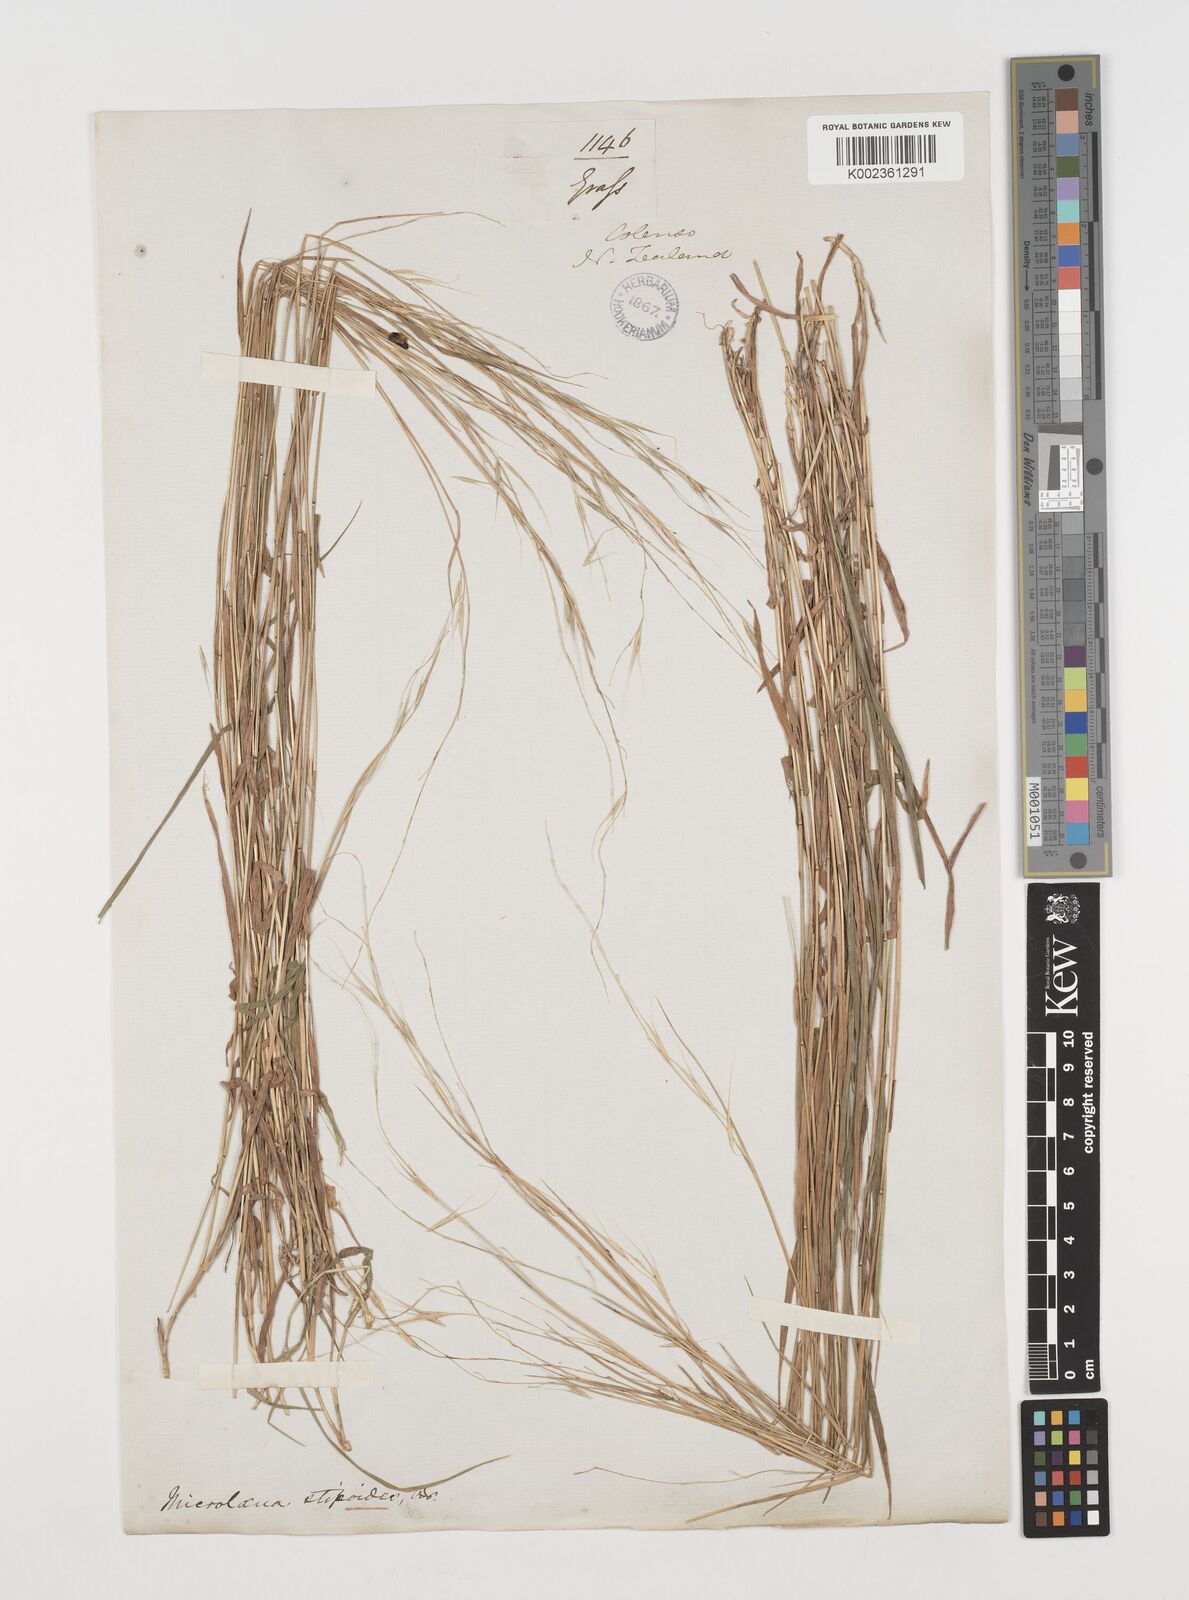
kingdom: Plantae
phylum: Tracheophyta
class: Liliopsida
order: Poales
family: Poaceae
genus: Microlaena
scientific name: Microlaena stipoides
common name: Meadow ricegrass
